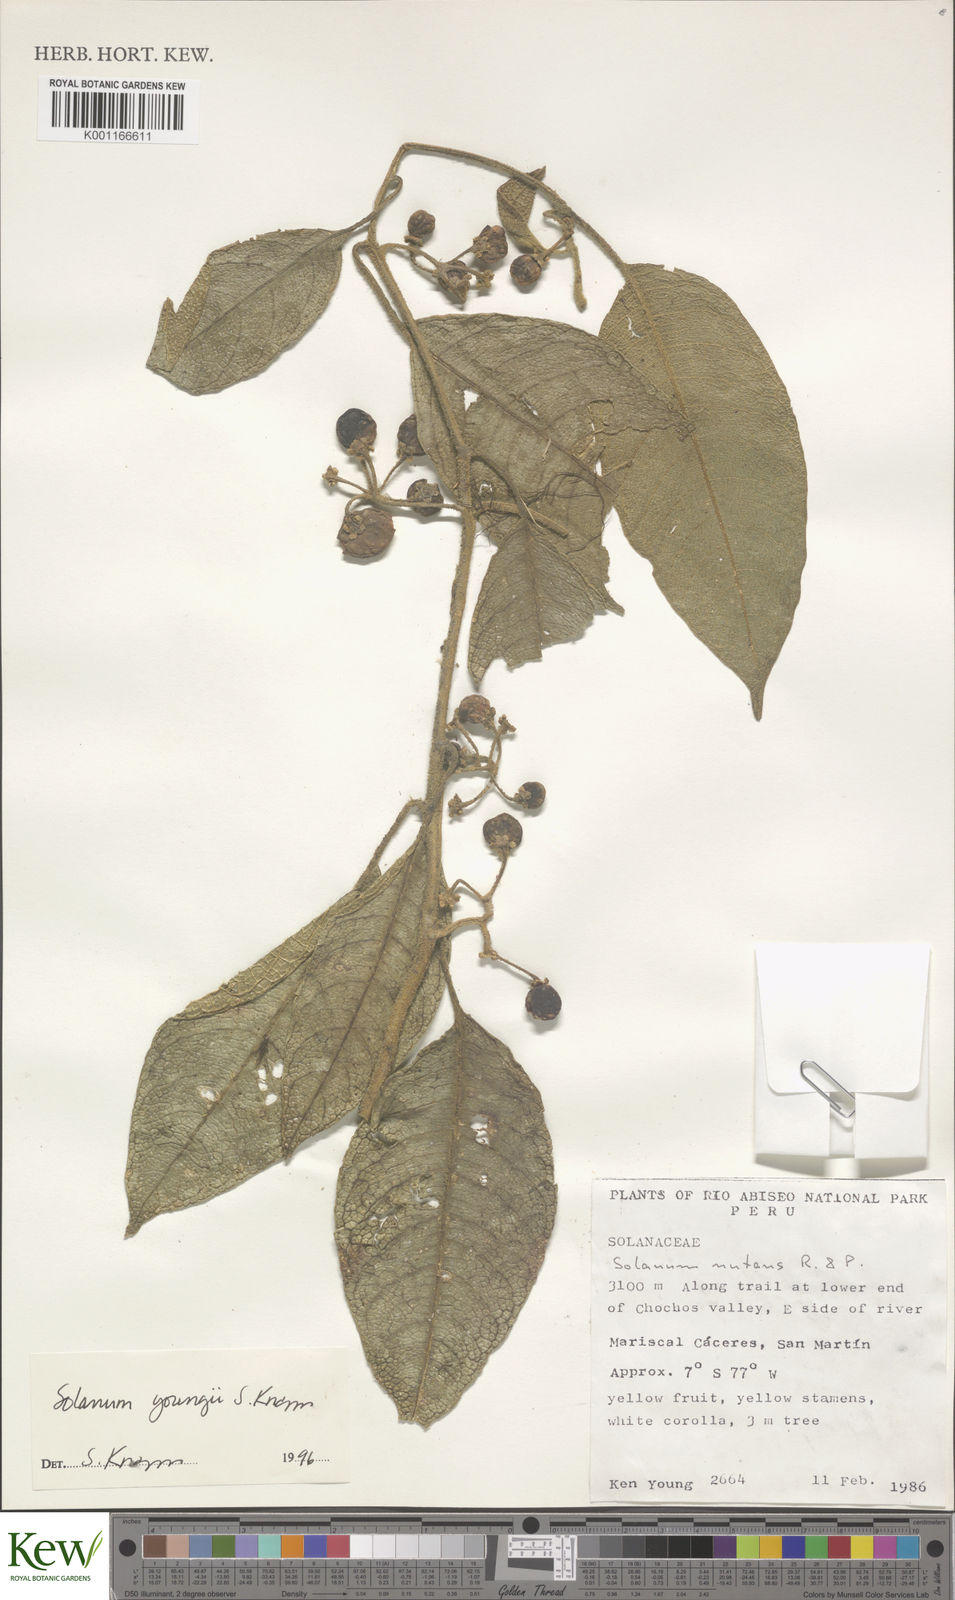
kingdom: Plantae
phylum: Tracheophyta
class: Magnoliopsida
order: Solanales
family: Solanaceae
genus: Solanum
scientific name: Solanum youngii
